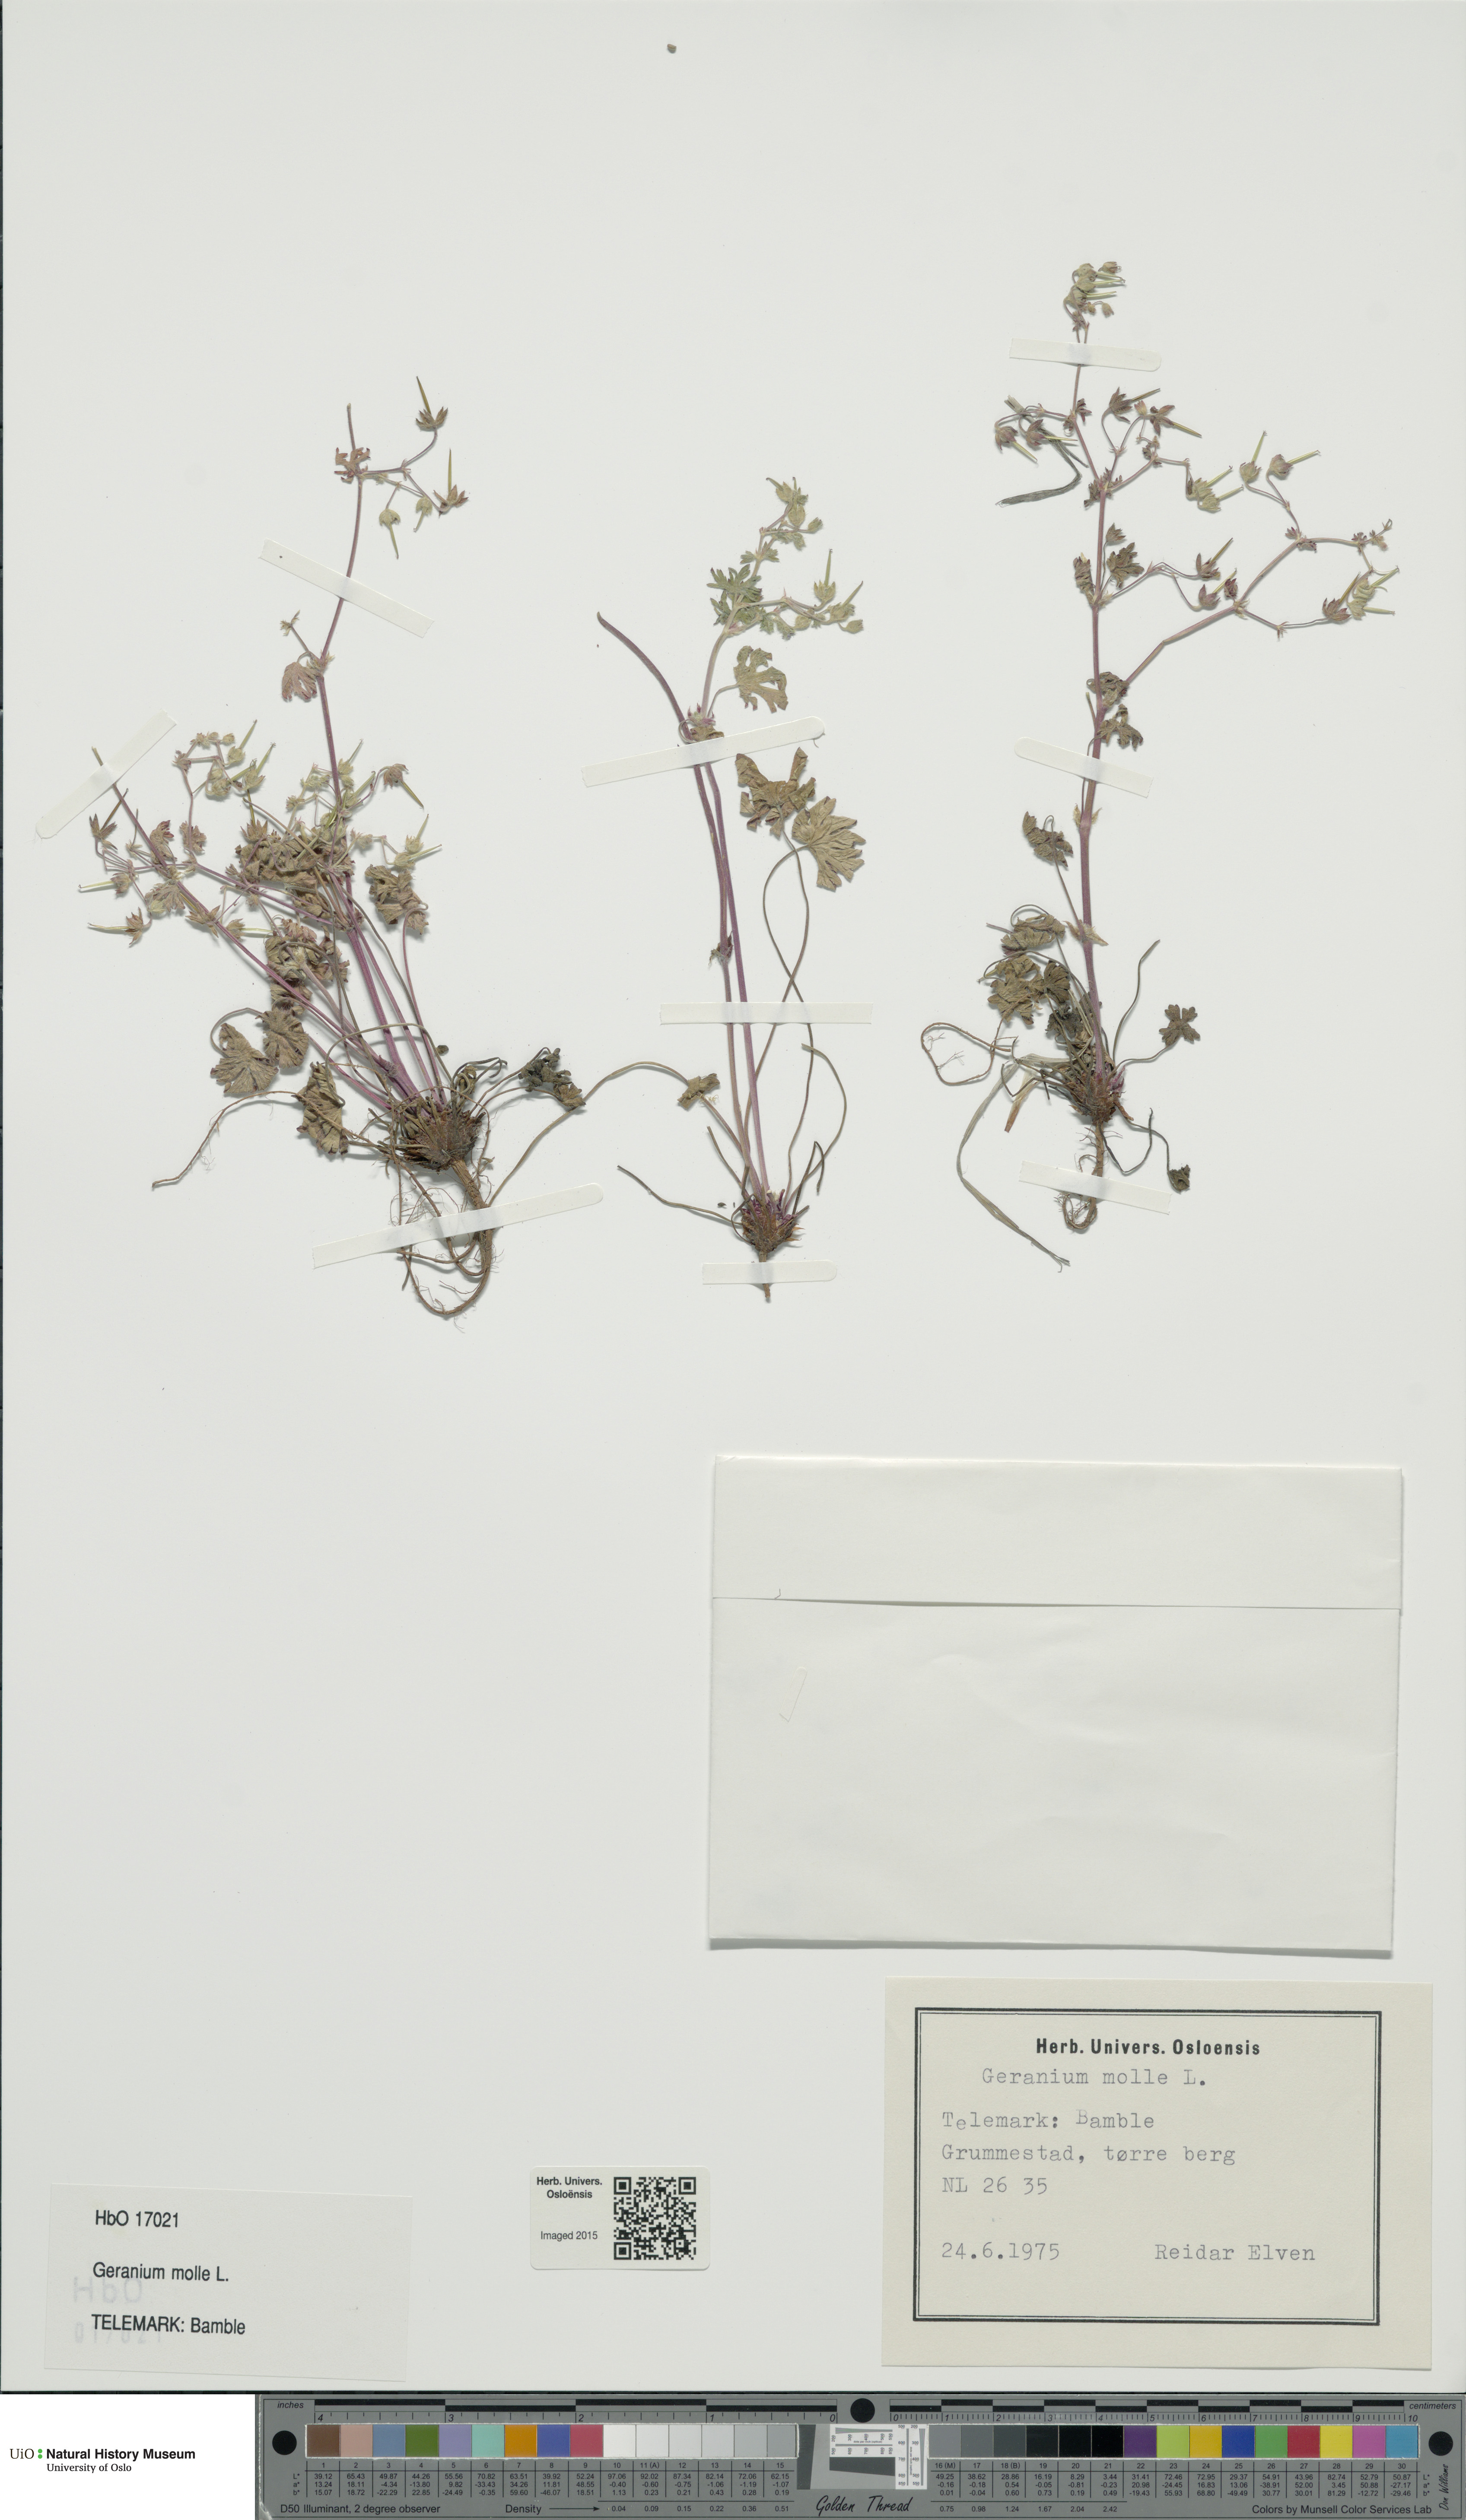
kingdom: Plantae
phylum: Tracheophyta
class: Magnoliopsida
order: Geraniales
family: Geraniaceae
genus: Geranium
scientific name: Geranium molle
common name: Dove's-foot crane's-bill
